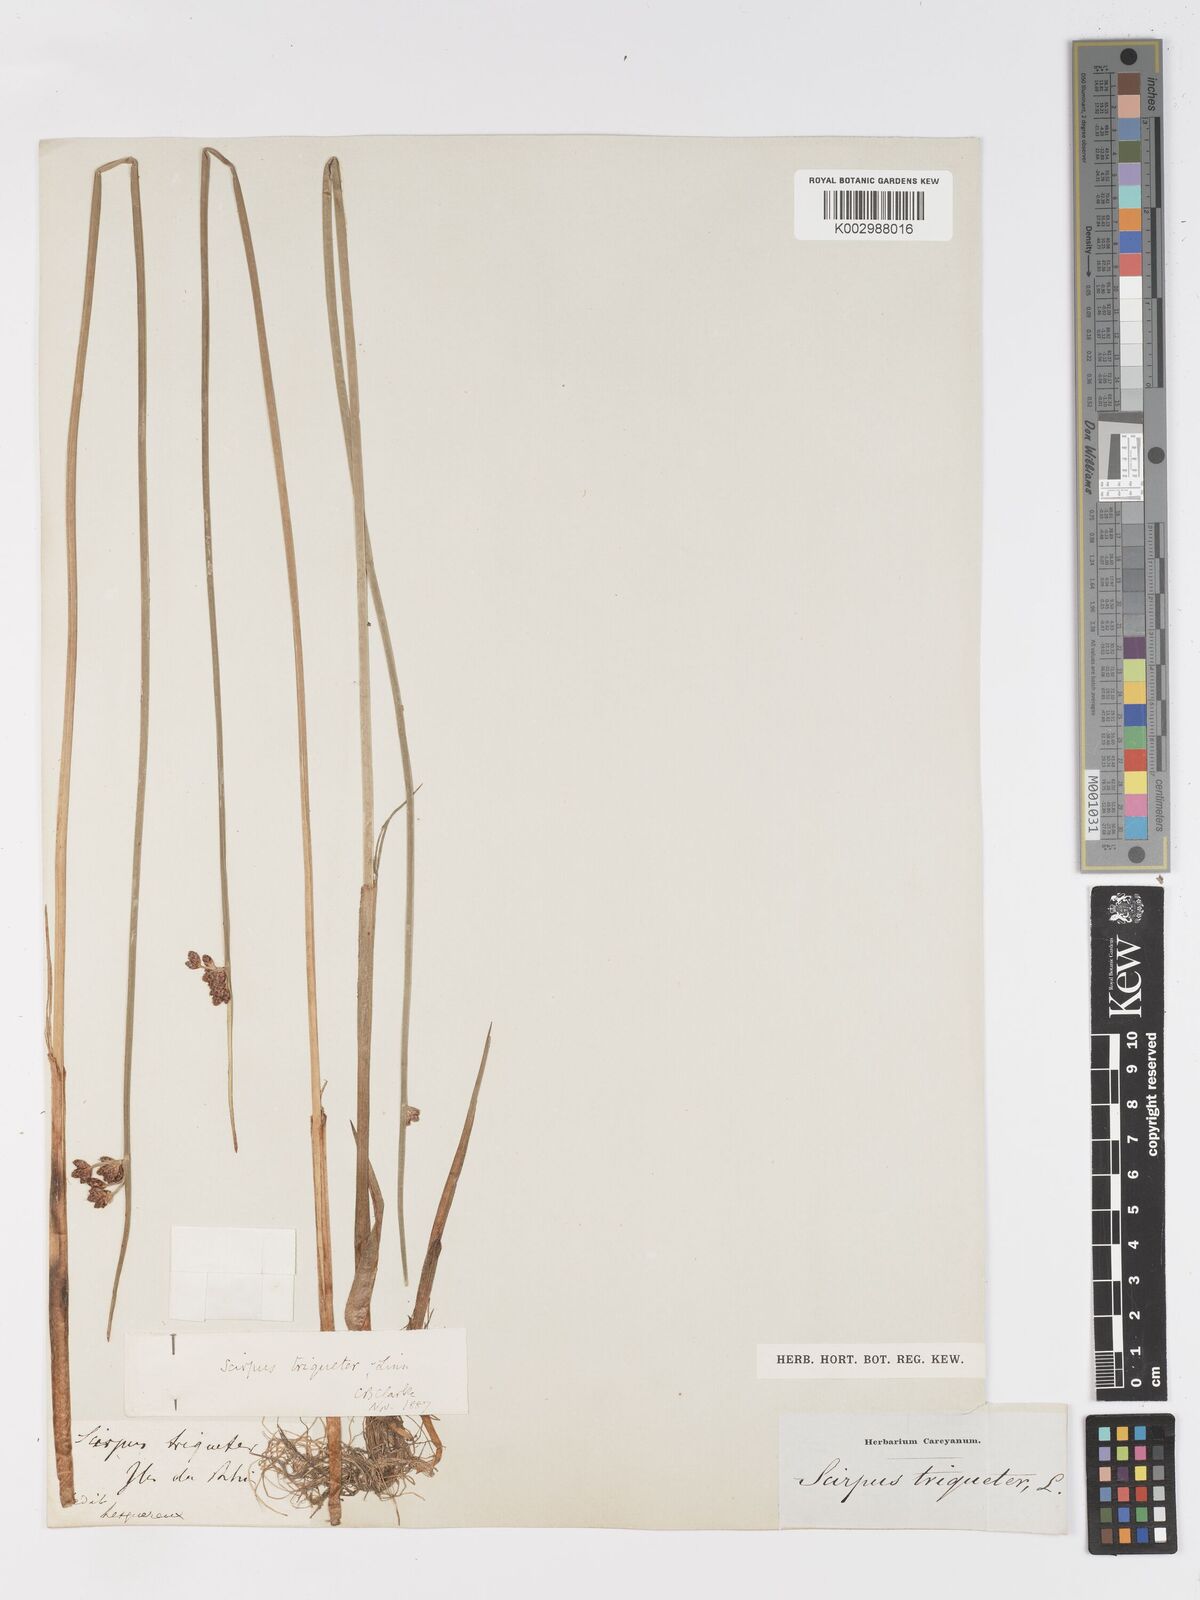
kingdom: Plantae
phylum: Tracheophyta
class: Liliopsida
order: Poales
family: Cyperaceae
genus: Schoenoplectus
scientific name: Schoenoplectus triqueter
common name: Triangular club-rush
